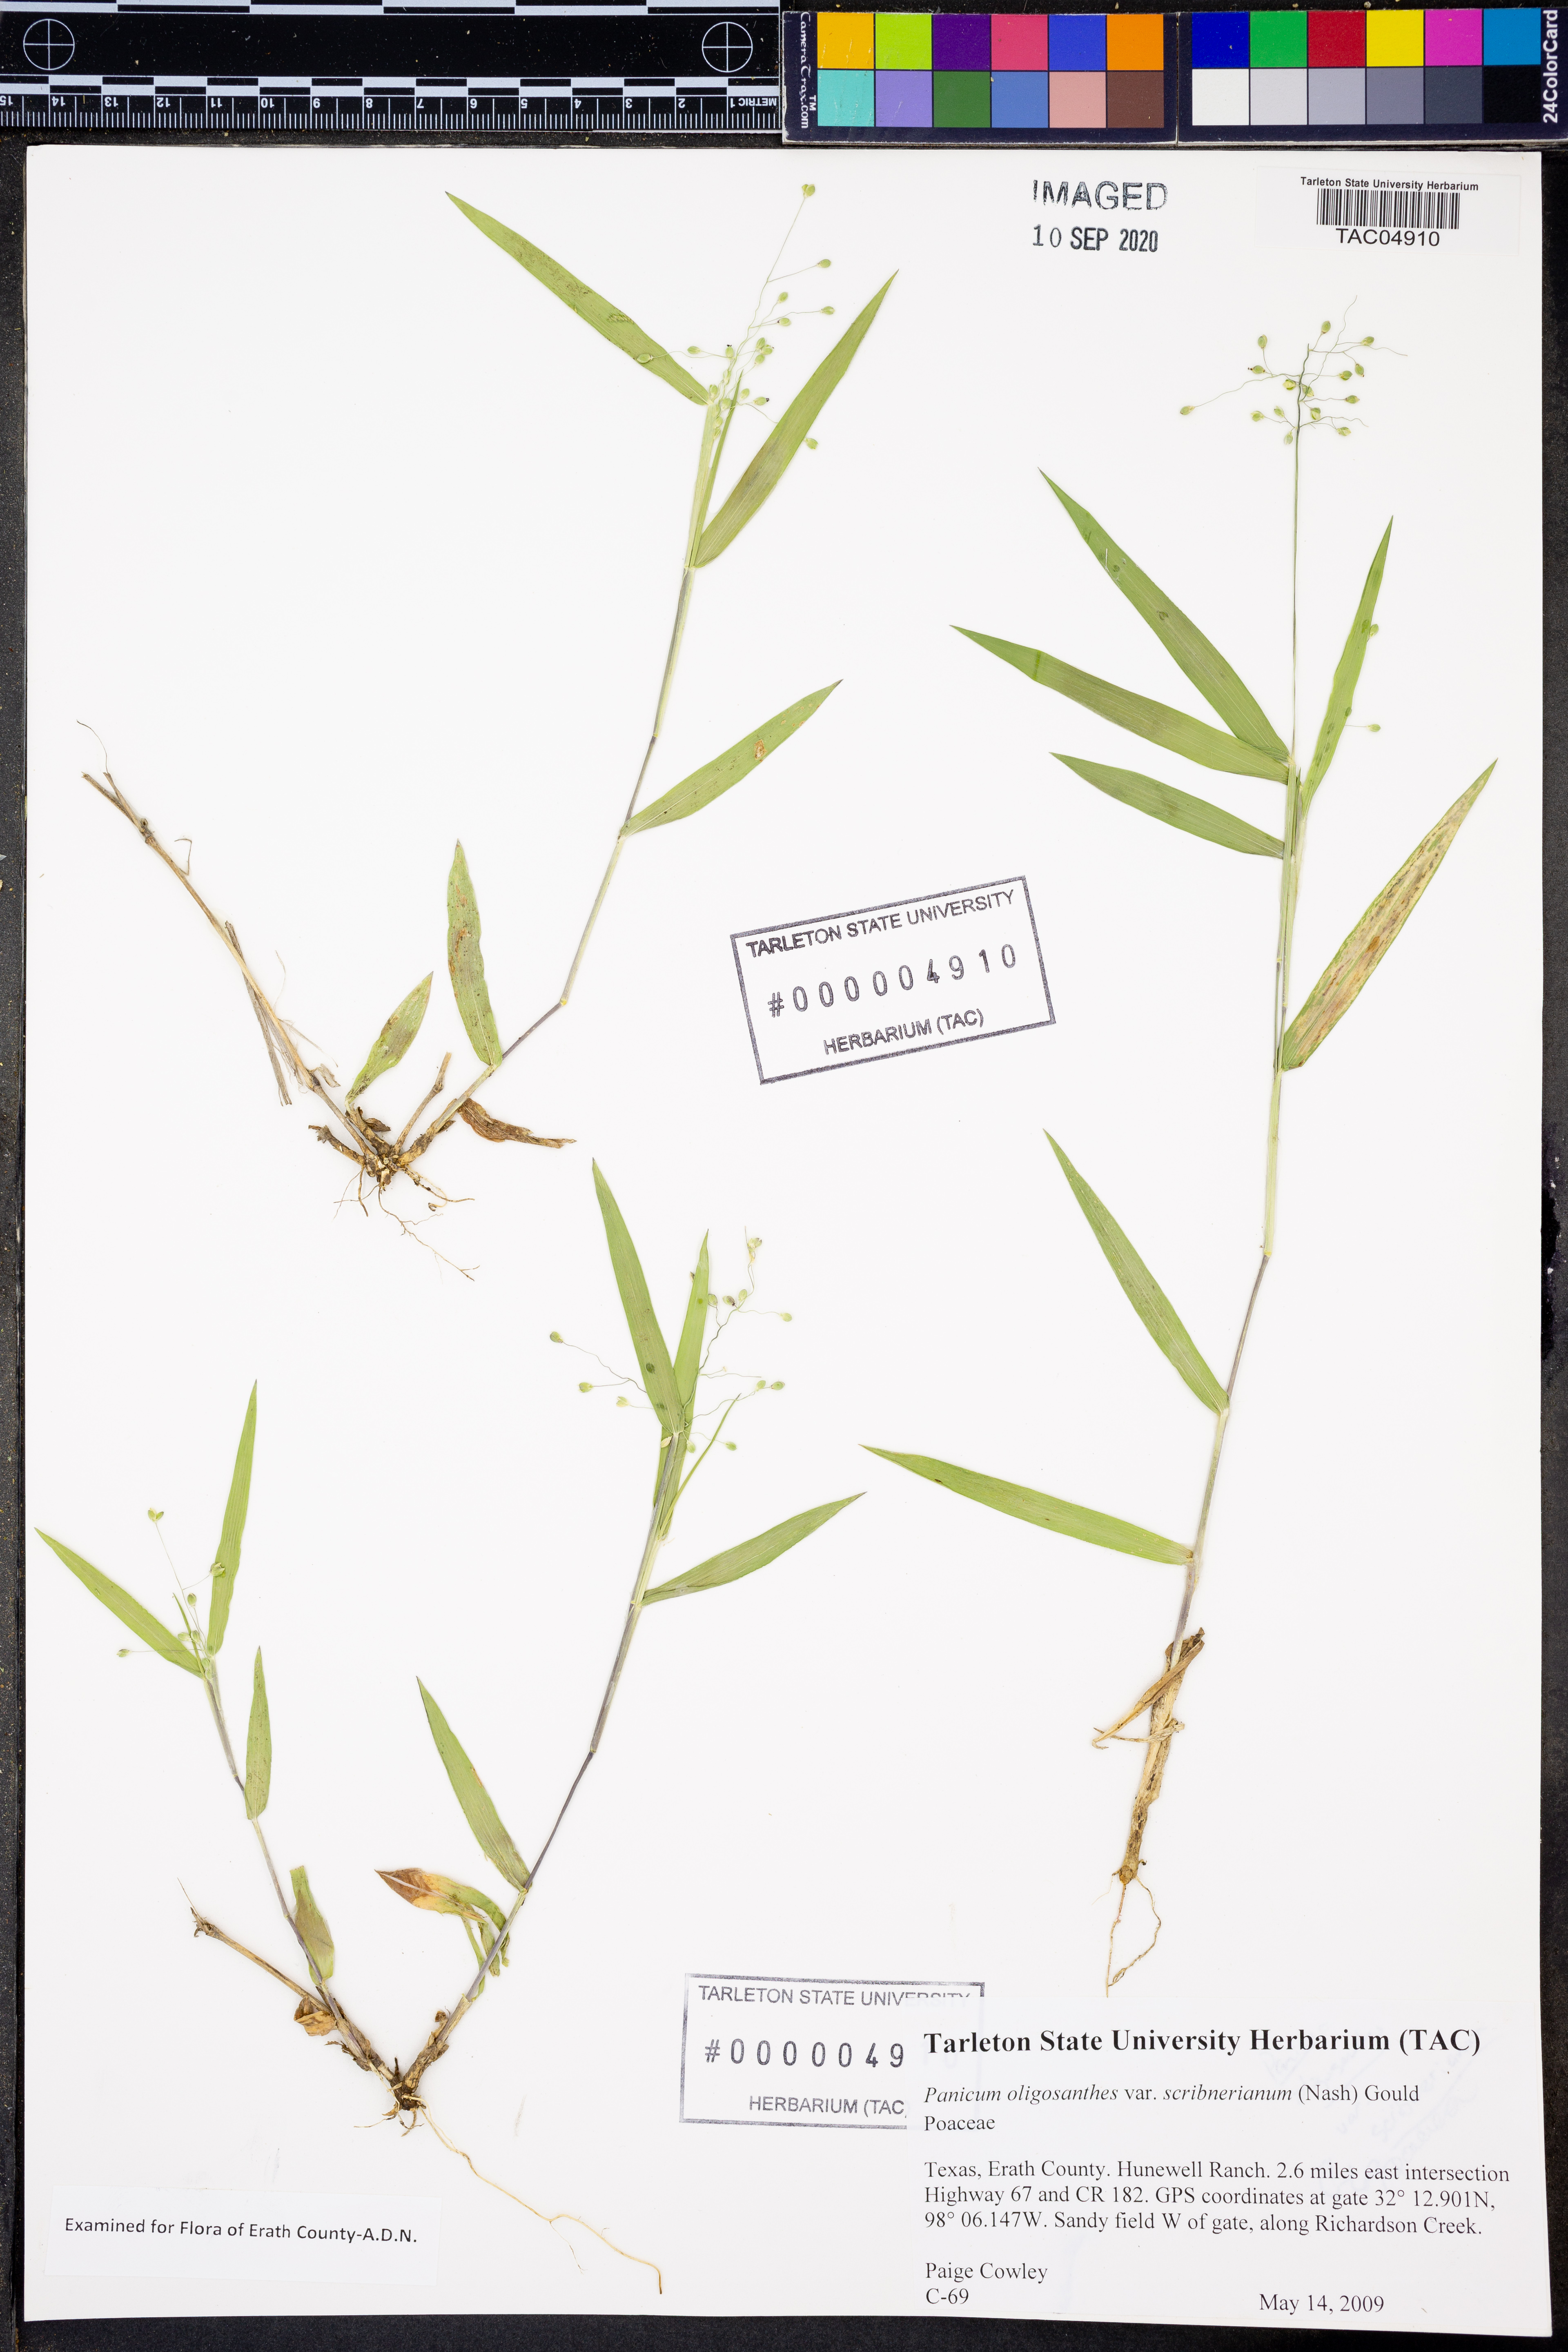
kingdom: Plantae
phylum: Tracheophyta
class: Liliopsida
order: Poales
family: Poaceae
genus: Dichanthelium
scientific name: Dichanthelium scribnerianum
